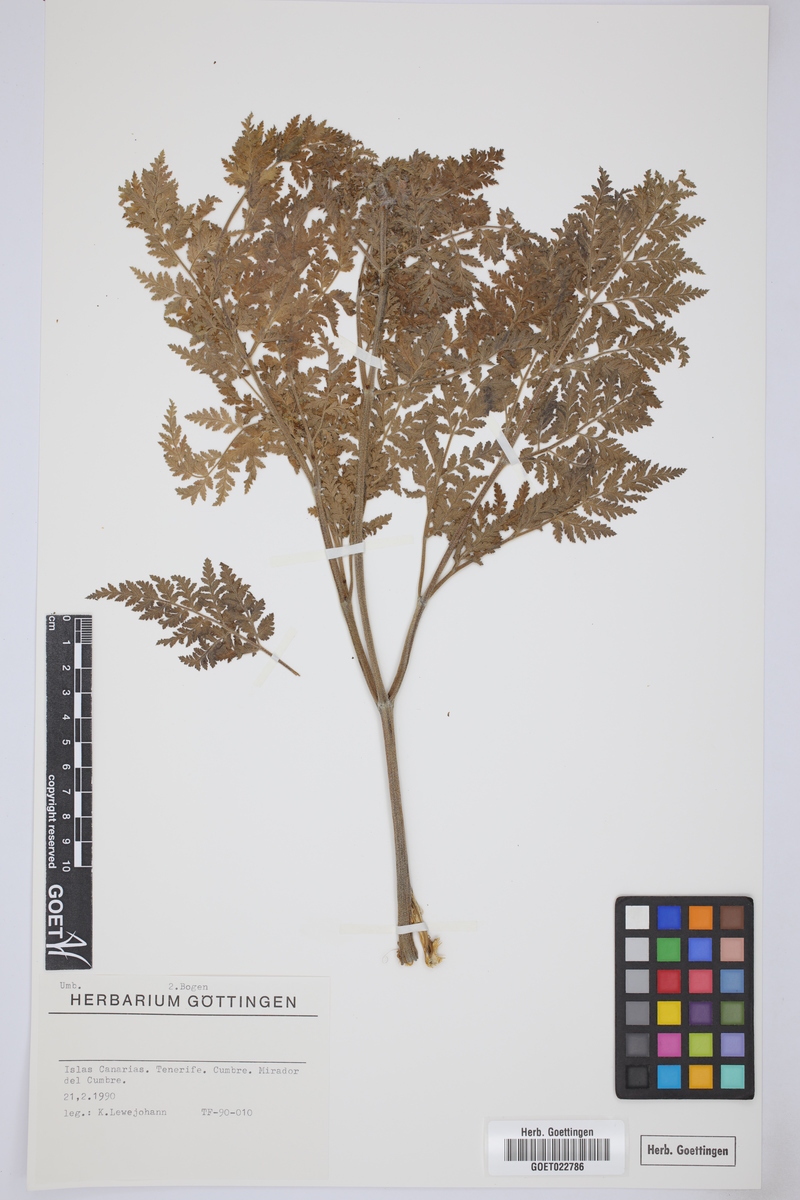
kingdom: Plantae
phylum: Tracheophyta
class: Magnoliopsida
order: Apiales
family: Apiaceae
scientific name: Apiaceae
